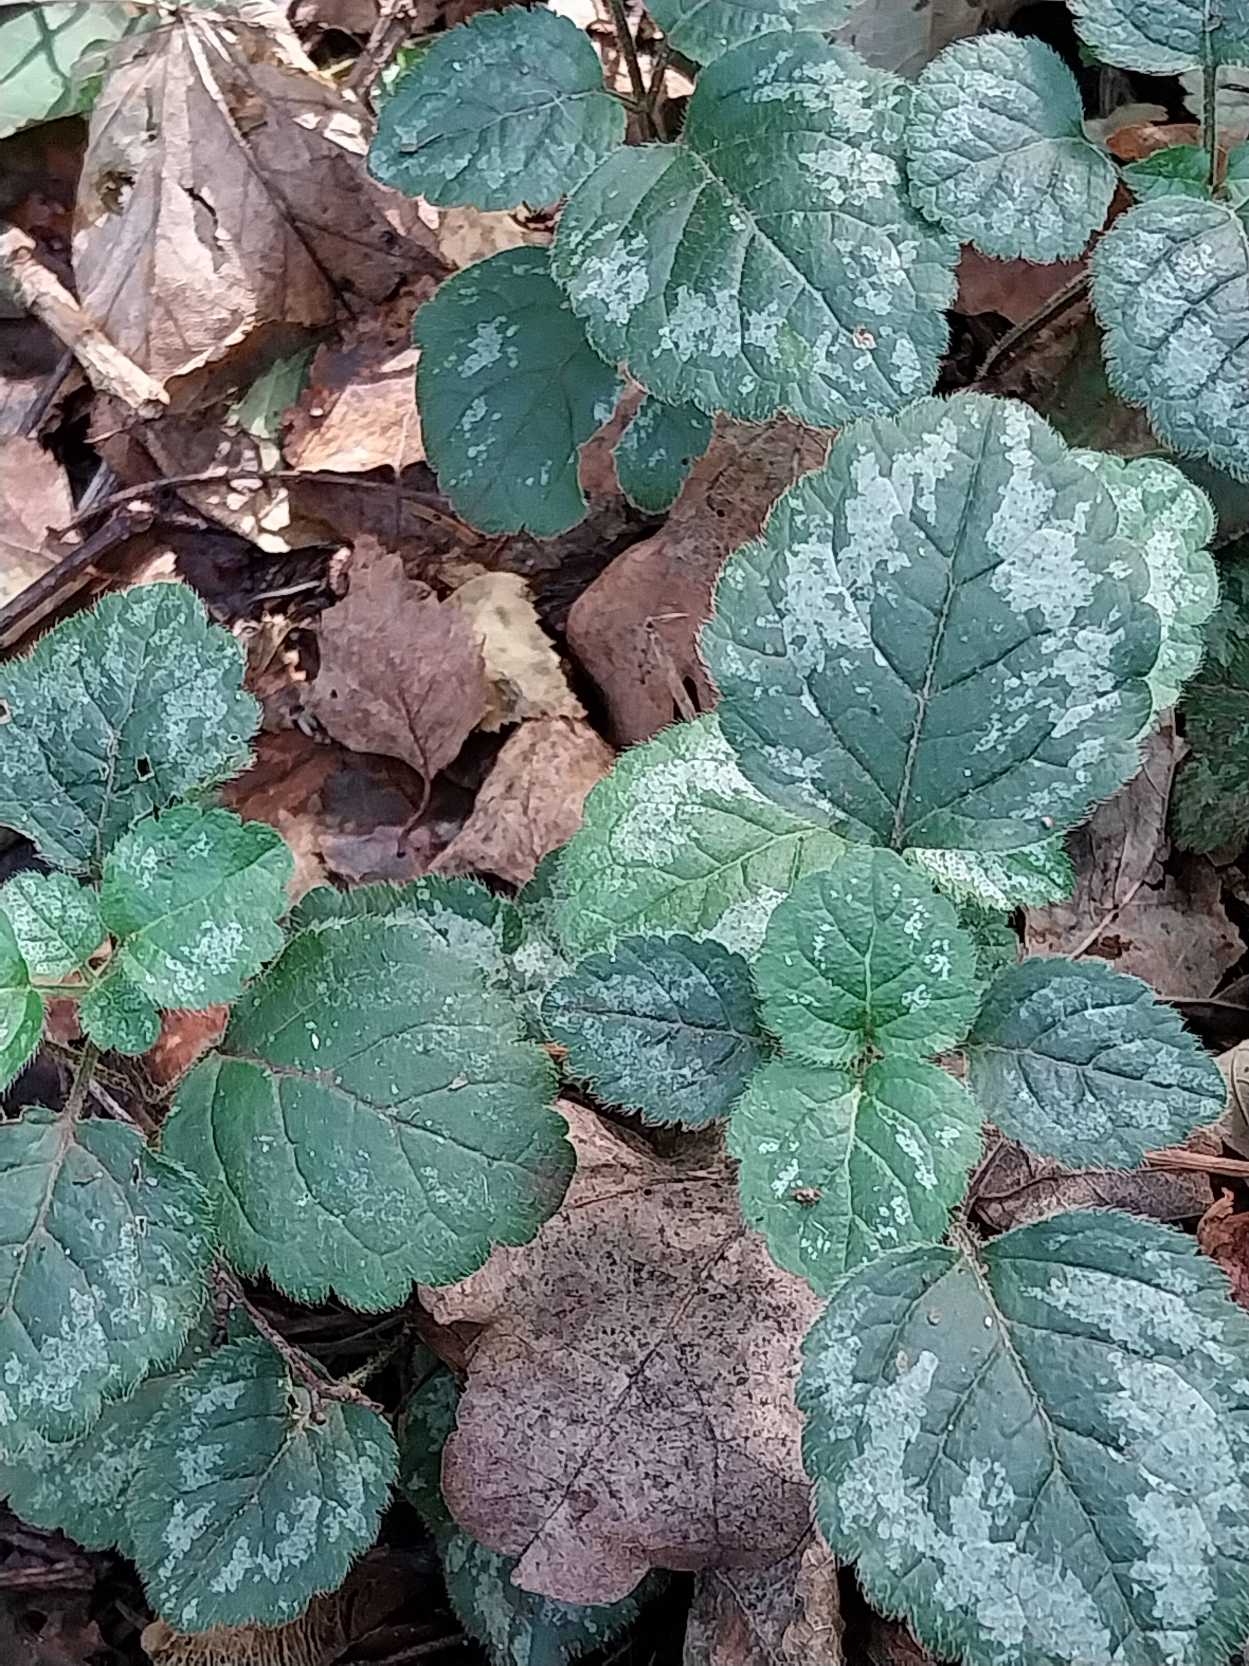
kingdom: Plantae
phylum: Tracheophyta
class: Magnoliopsida
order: Lamiales
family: Lamiaceae
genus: Lamium
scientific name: Lamium galeobdolon
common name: Have-guldnælde
